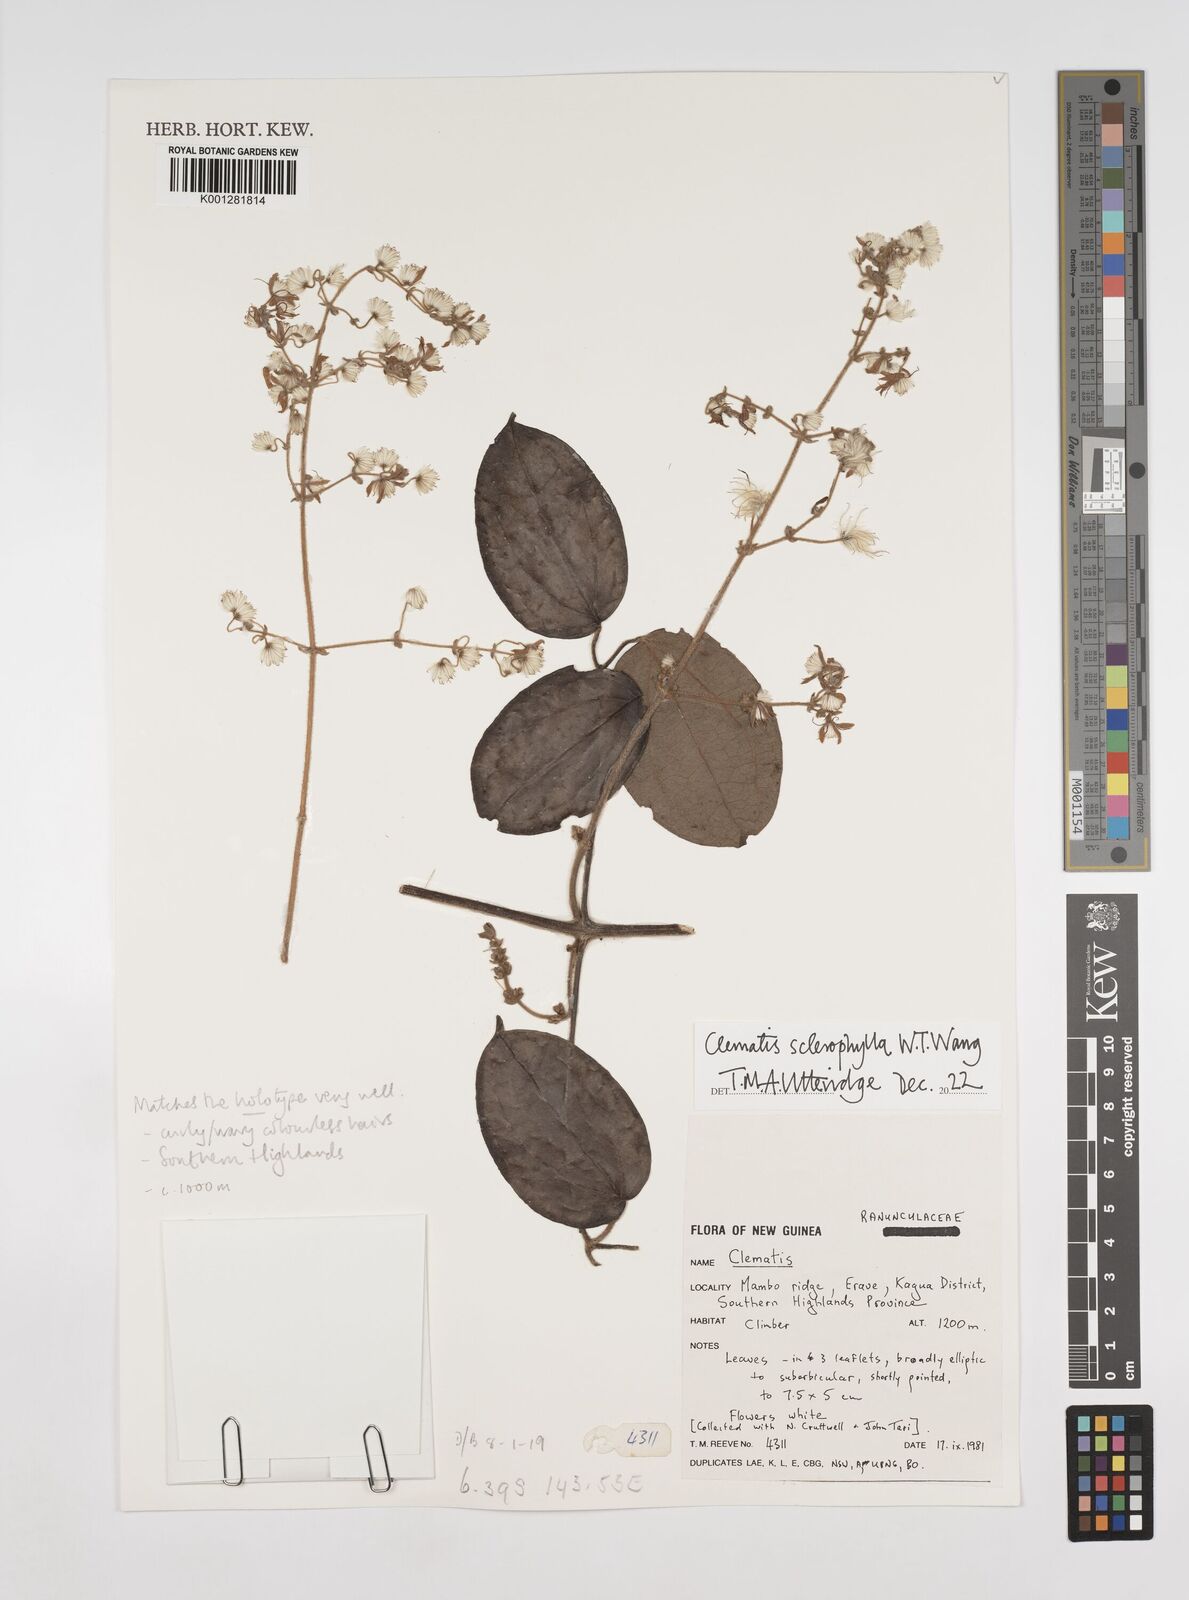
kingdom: Plantae
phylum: Tracheophyta
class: Magnoliopsida
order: Ranunculales
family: Ranunculaceae
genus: Clematis
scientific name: Clematis sclerophylla
